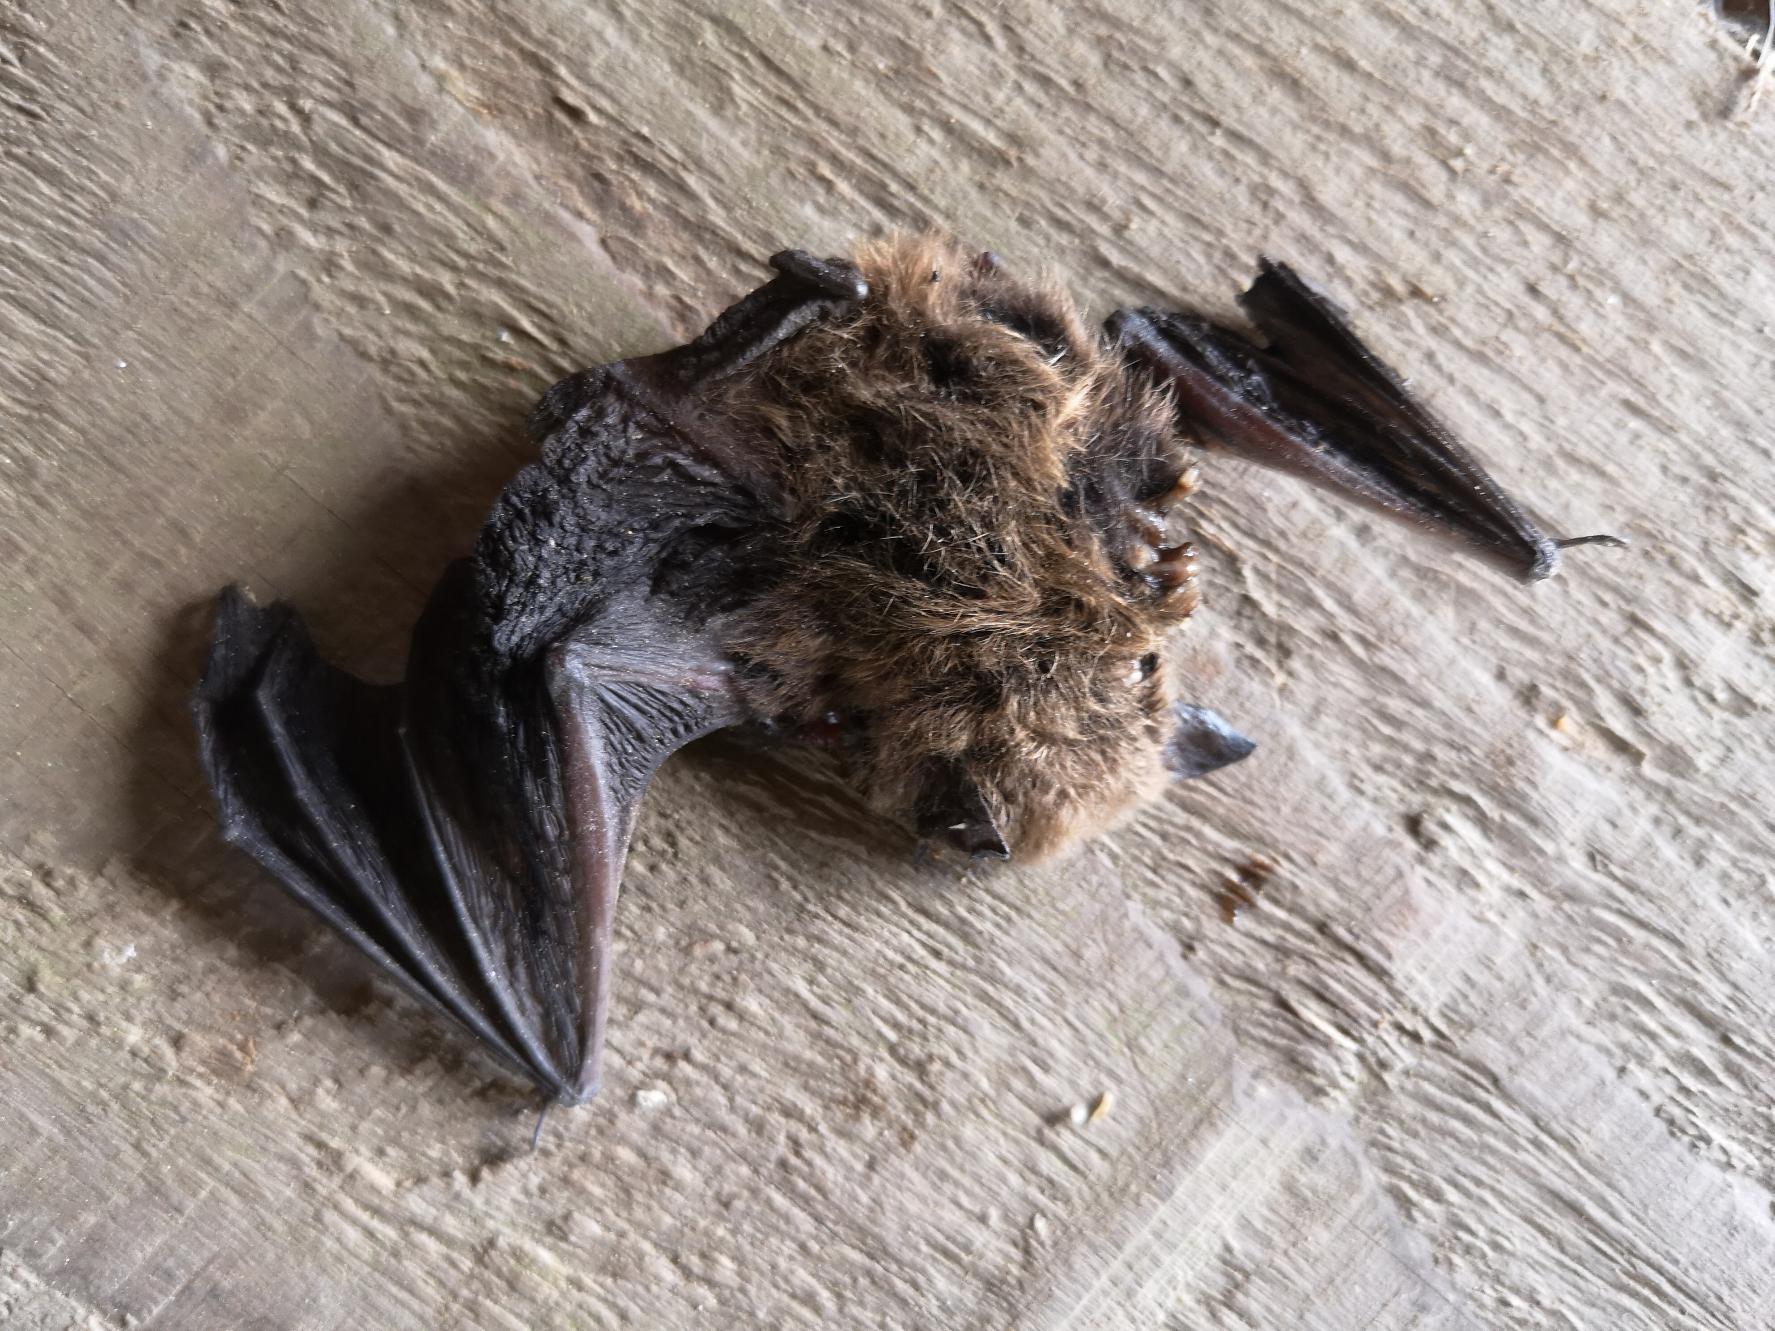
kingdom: Animalia
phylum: Chordata
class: Mammalia
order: Chiroptera
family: Vespertilionidae
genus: Pipistrellus
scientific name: Pipistrellus pipistrellus
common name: Pipistrelflagermus
